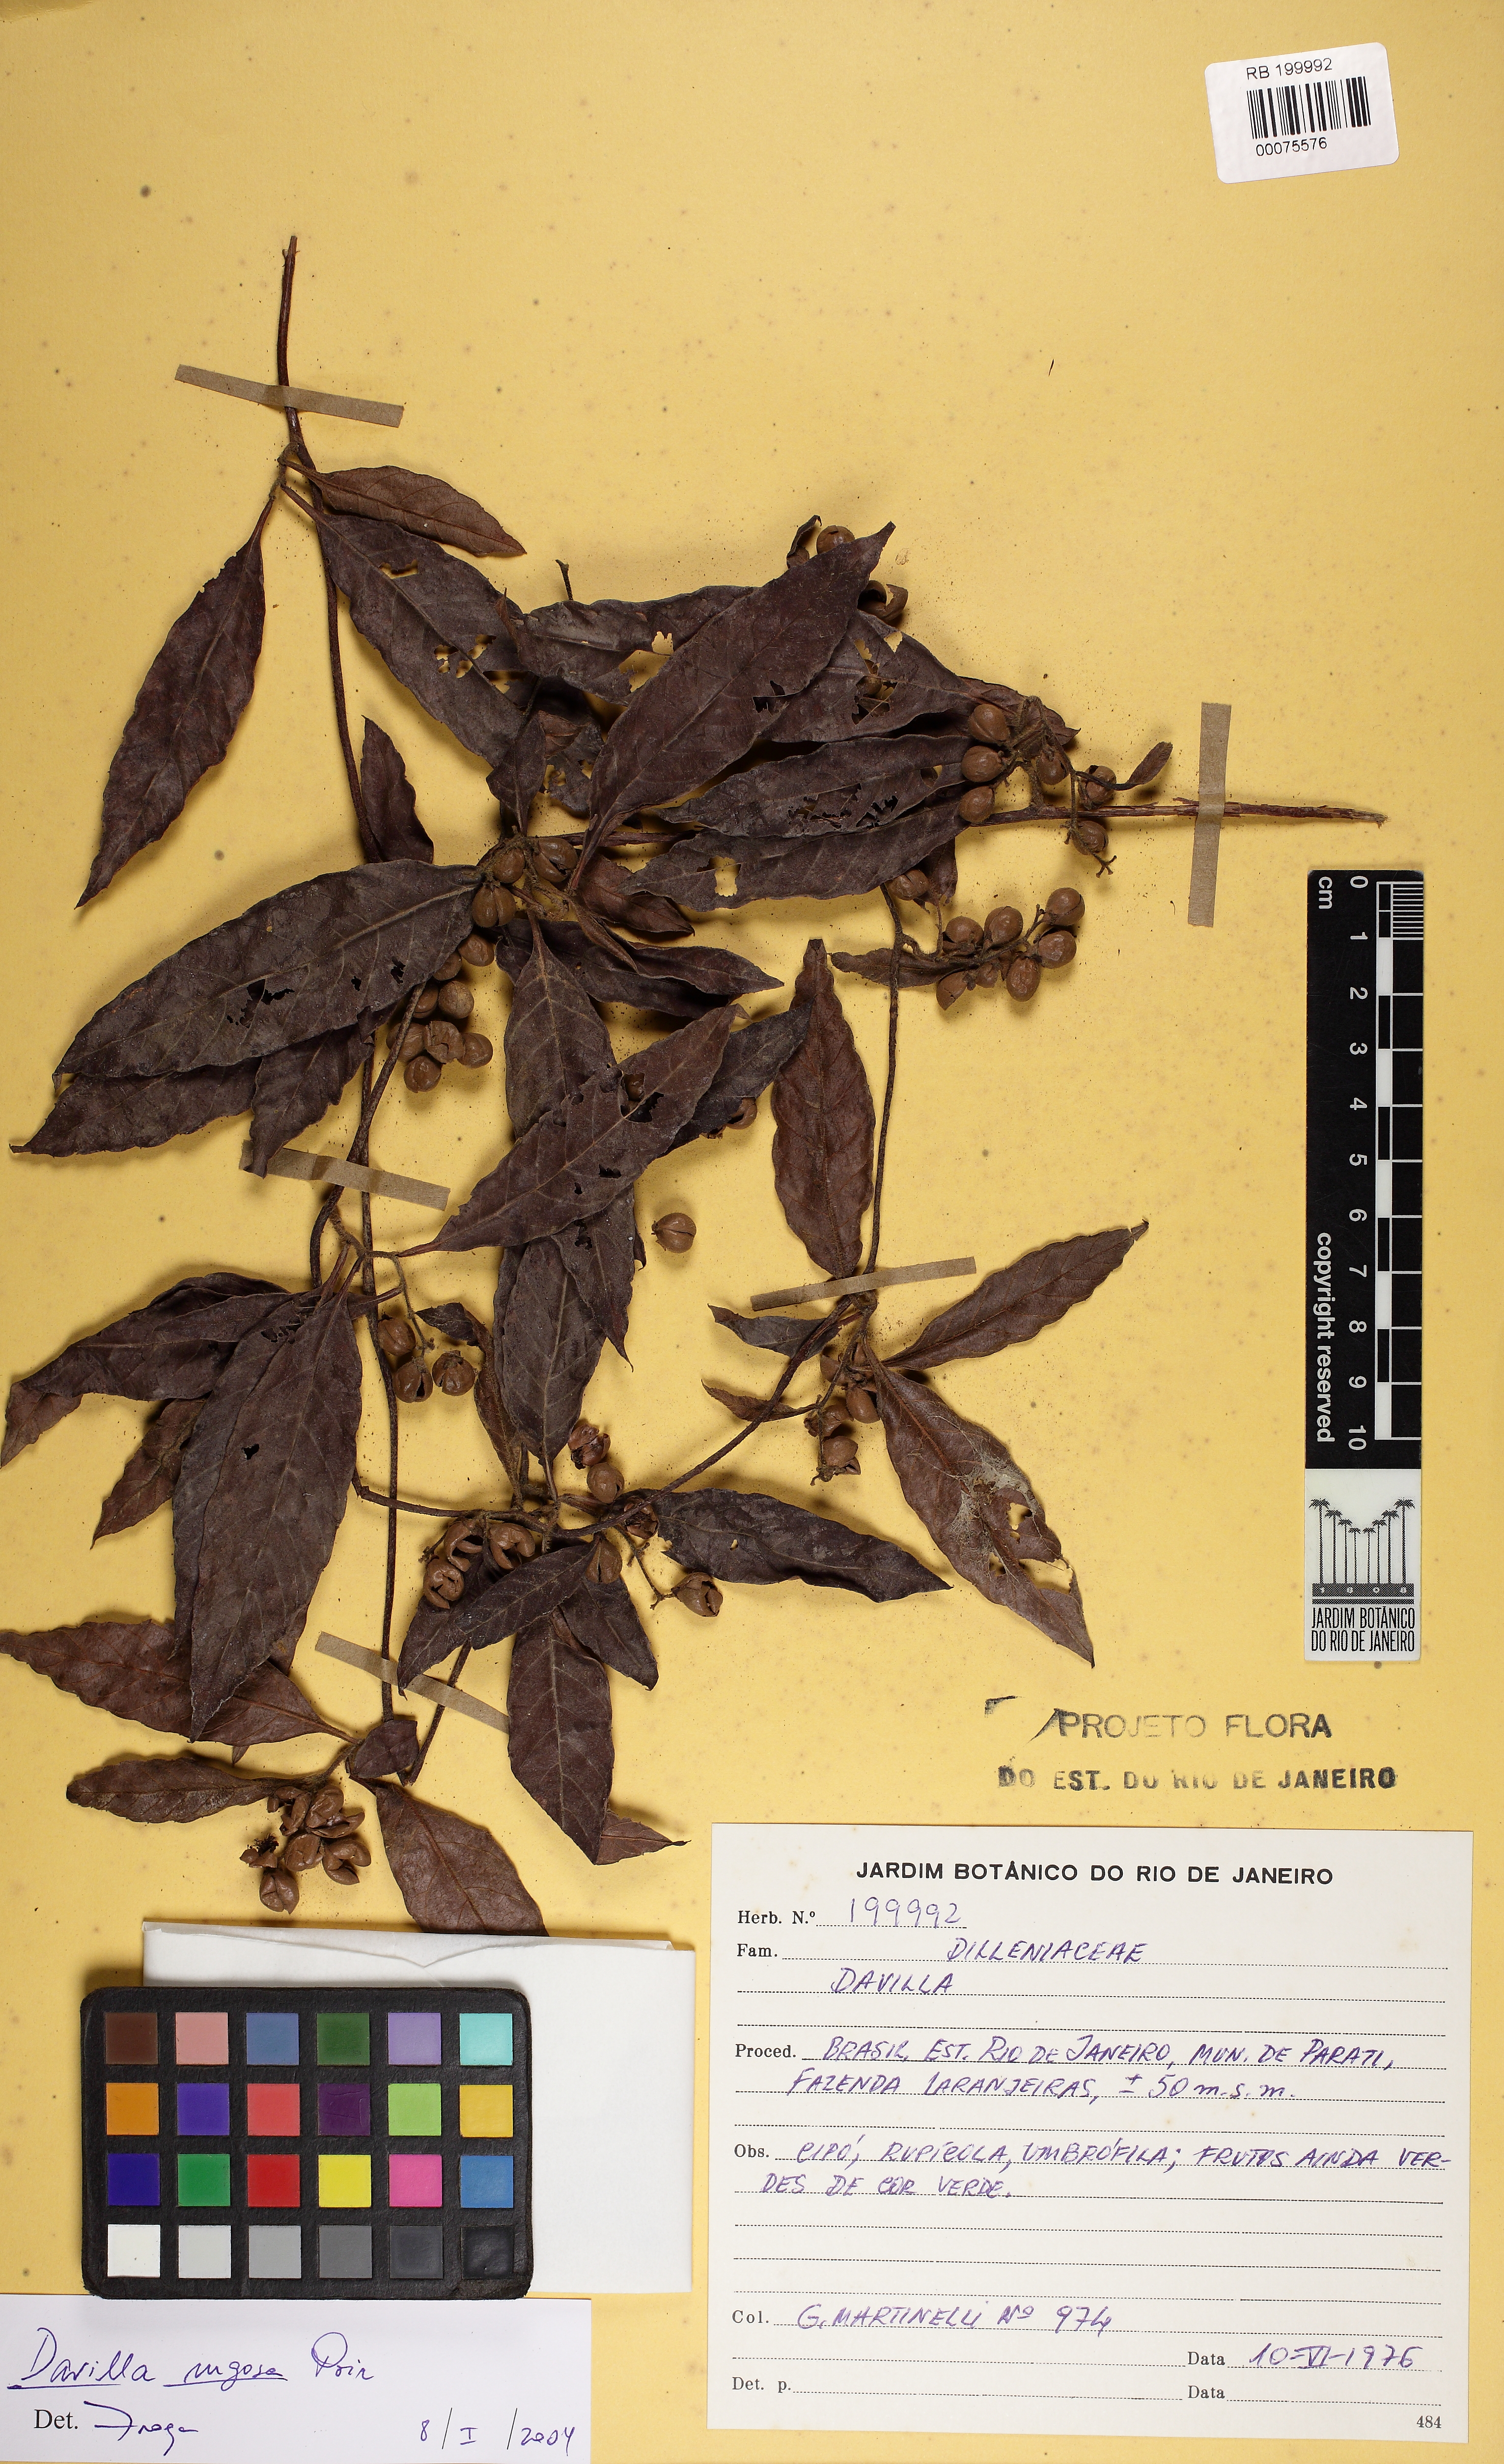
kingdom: Plantae
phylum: Tracheophyta
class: Magnoliopsida
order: Dilleniales
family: Dilleniaceae
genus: Davilla
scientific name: Davilla rugosa
